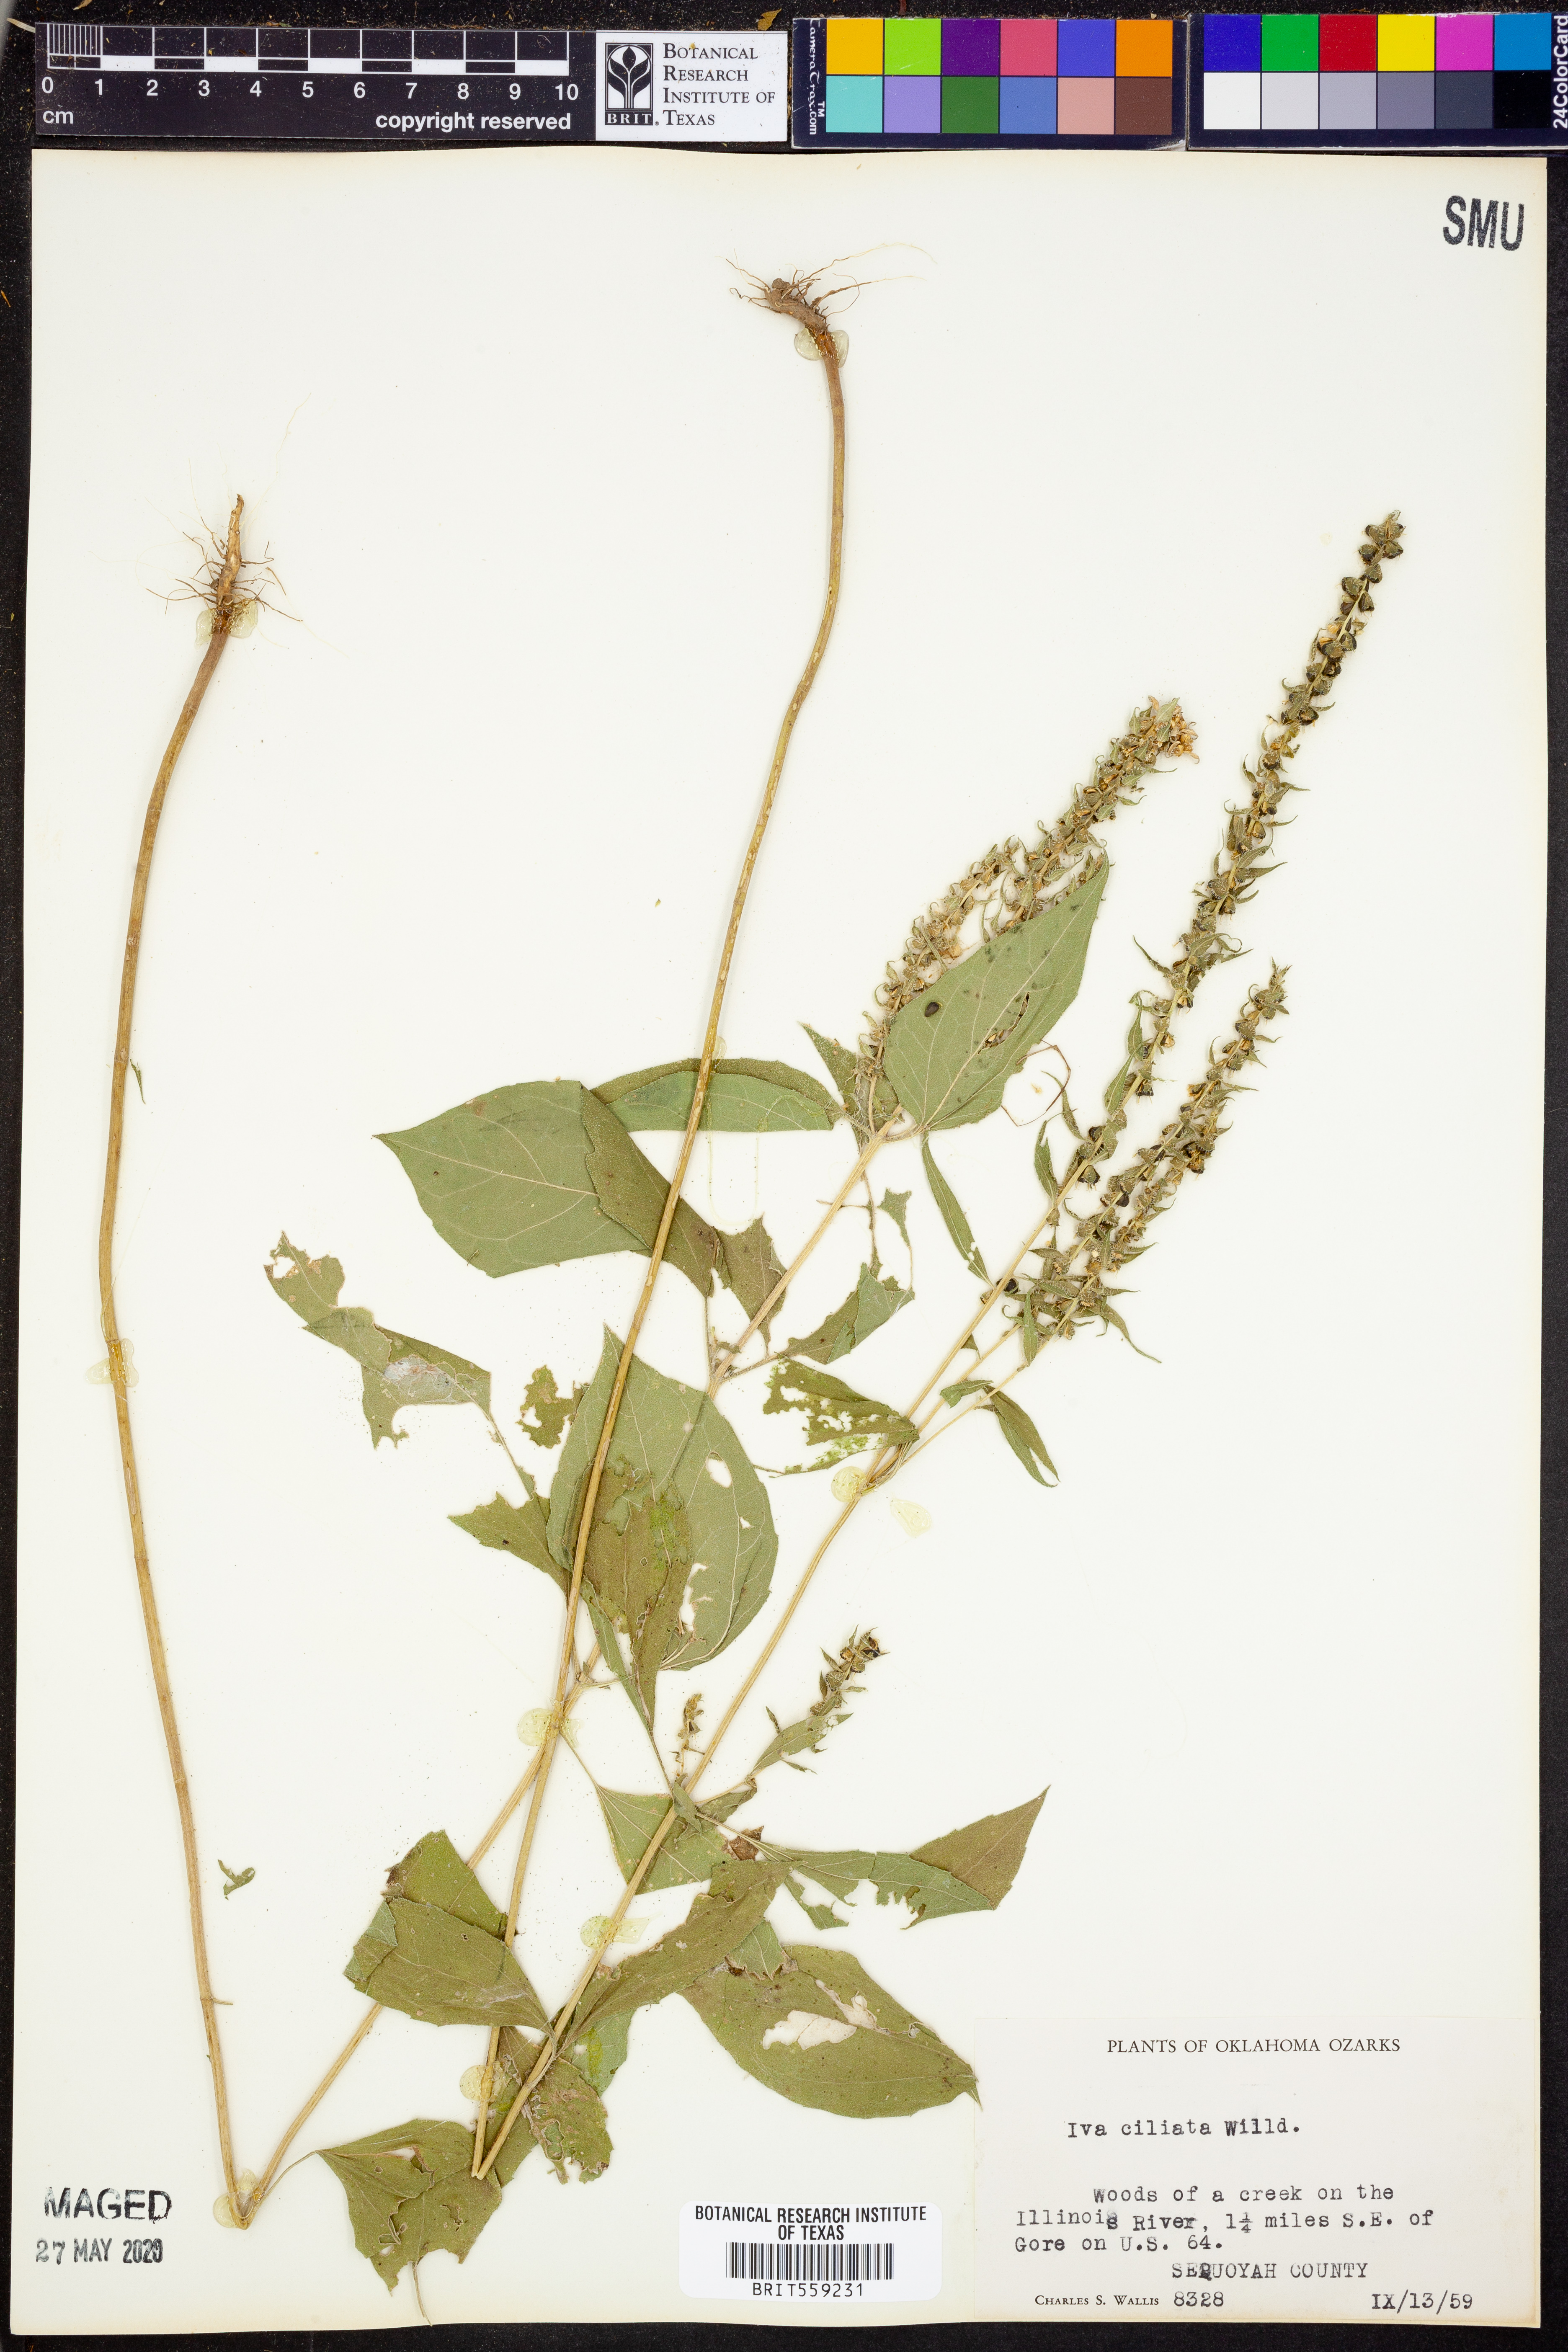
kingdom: Plantae
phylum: Tracheophyta
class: Magnoliopsida
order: Asterales
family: Asteraceae
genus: Iva
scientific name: Iva annua
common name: Marsh-elder
